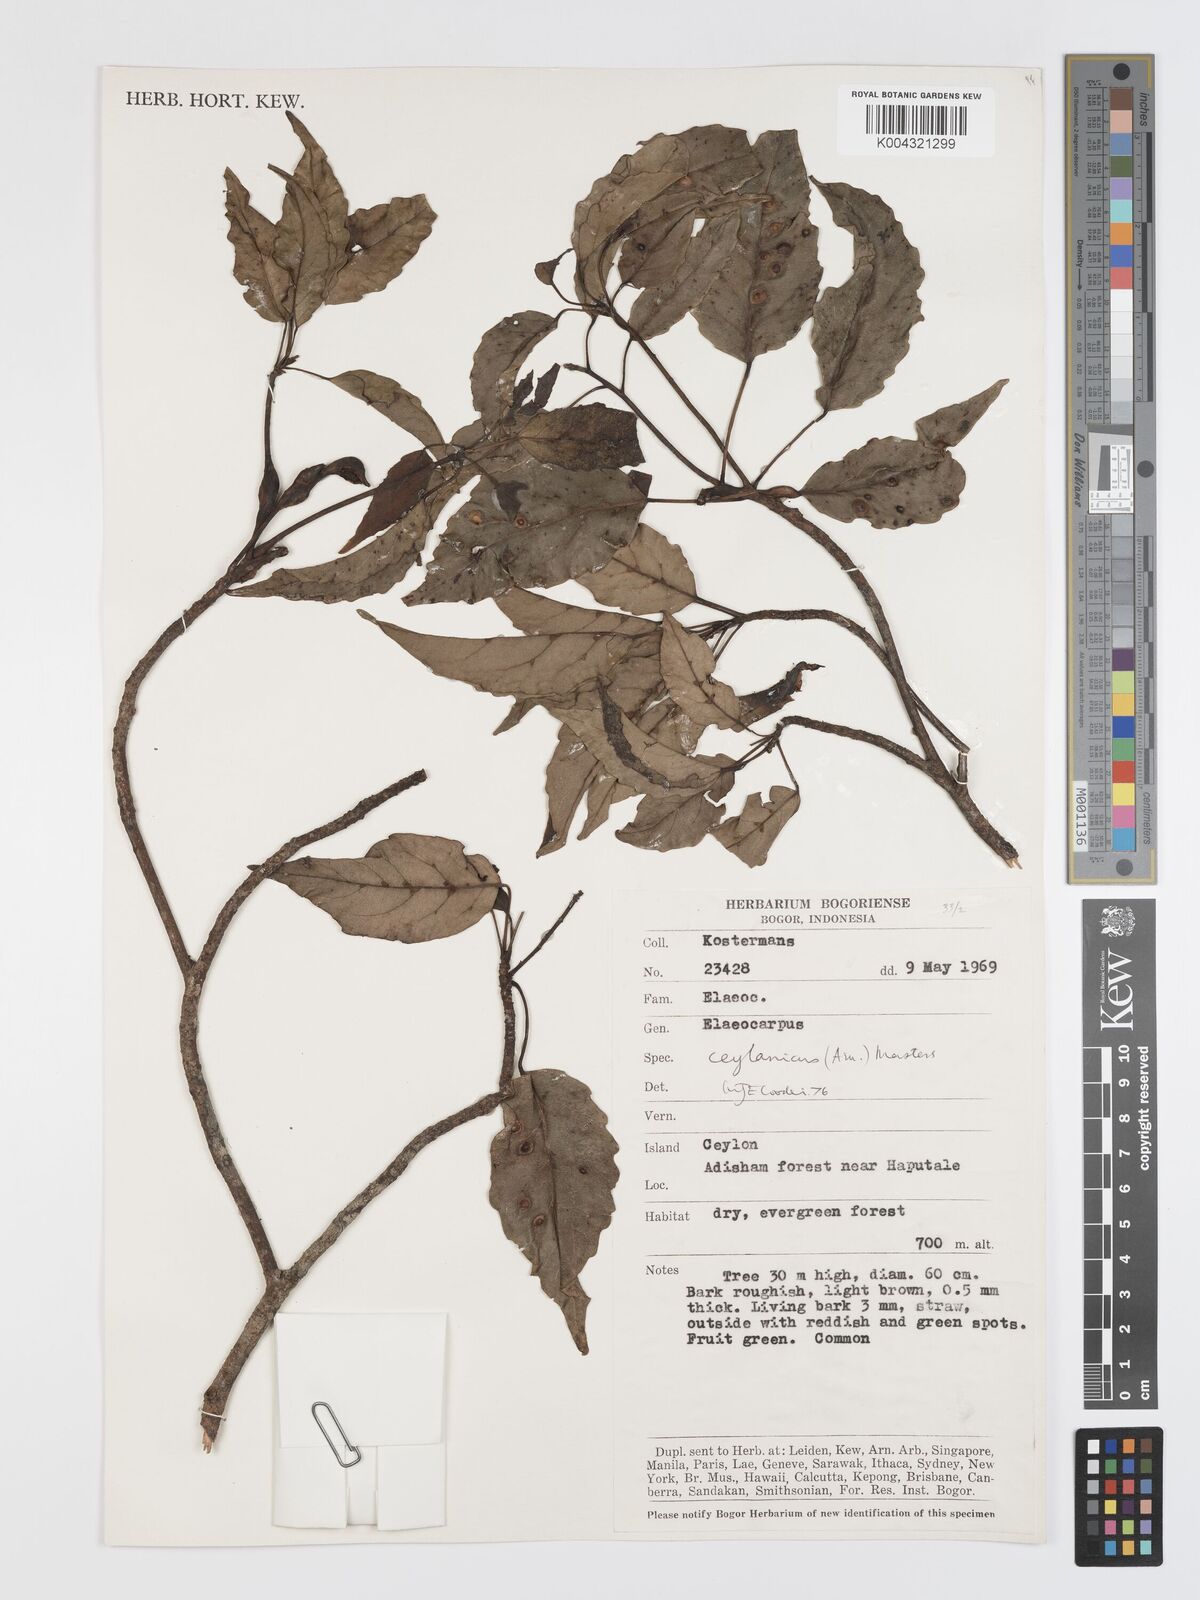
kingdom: Plantae
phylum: Tracheophyta
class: Magnoliopsida
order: Oxalidales
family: Elaeocarpaceae
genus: Elaeocarpus
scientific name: Elaeocarpus ceylanicus
